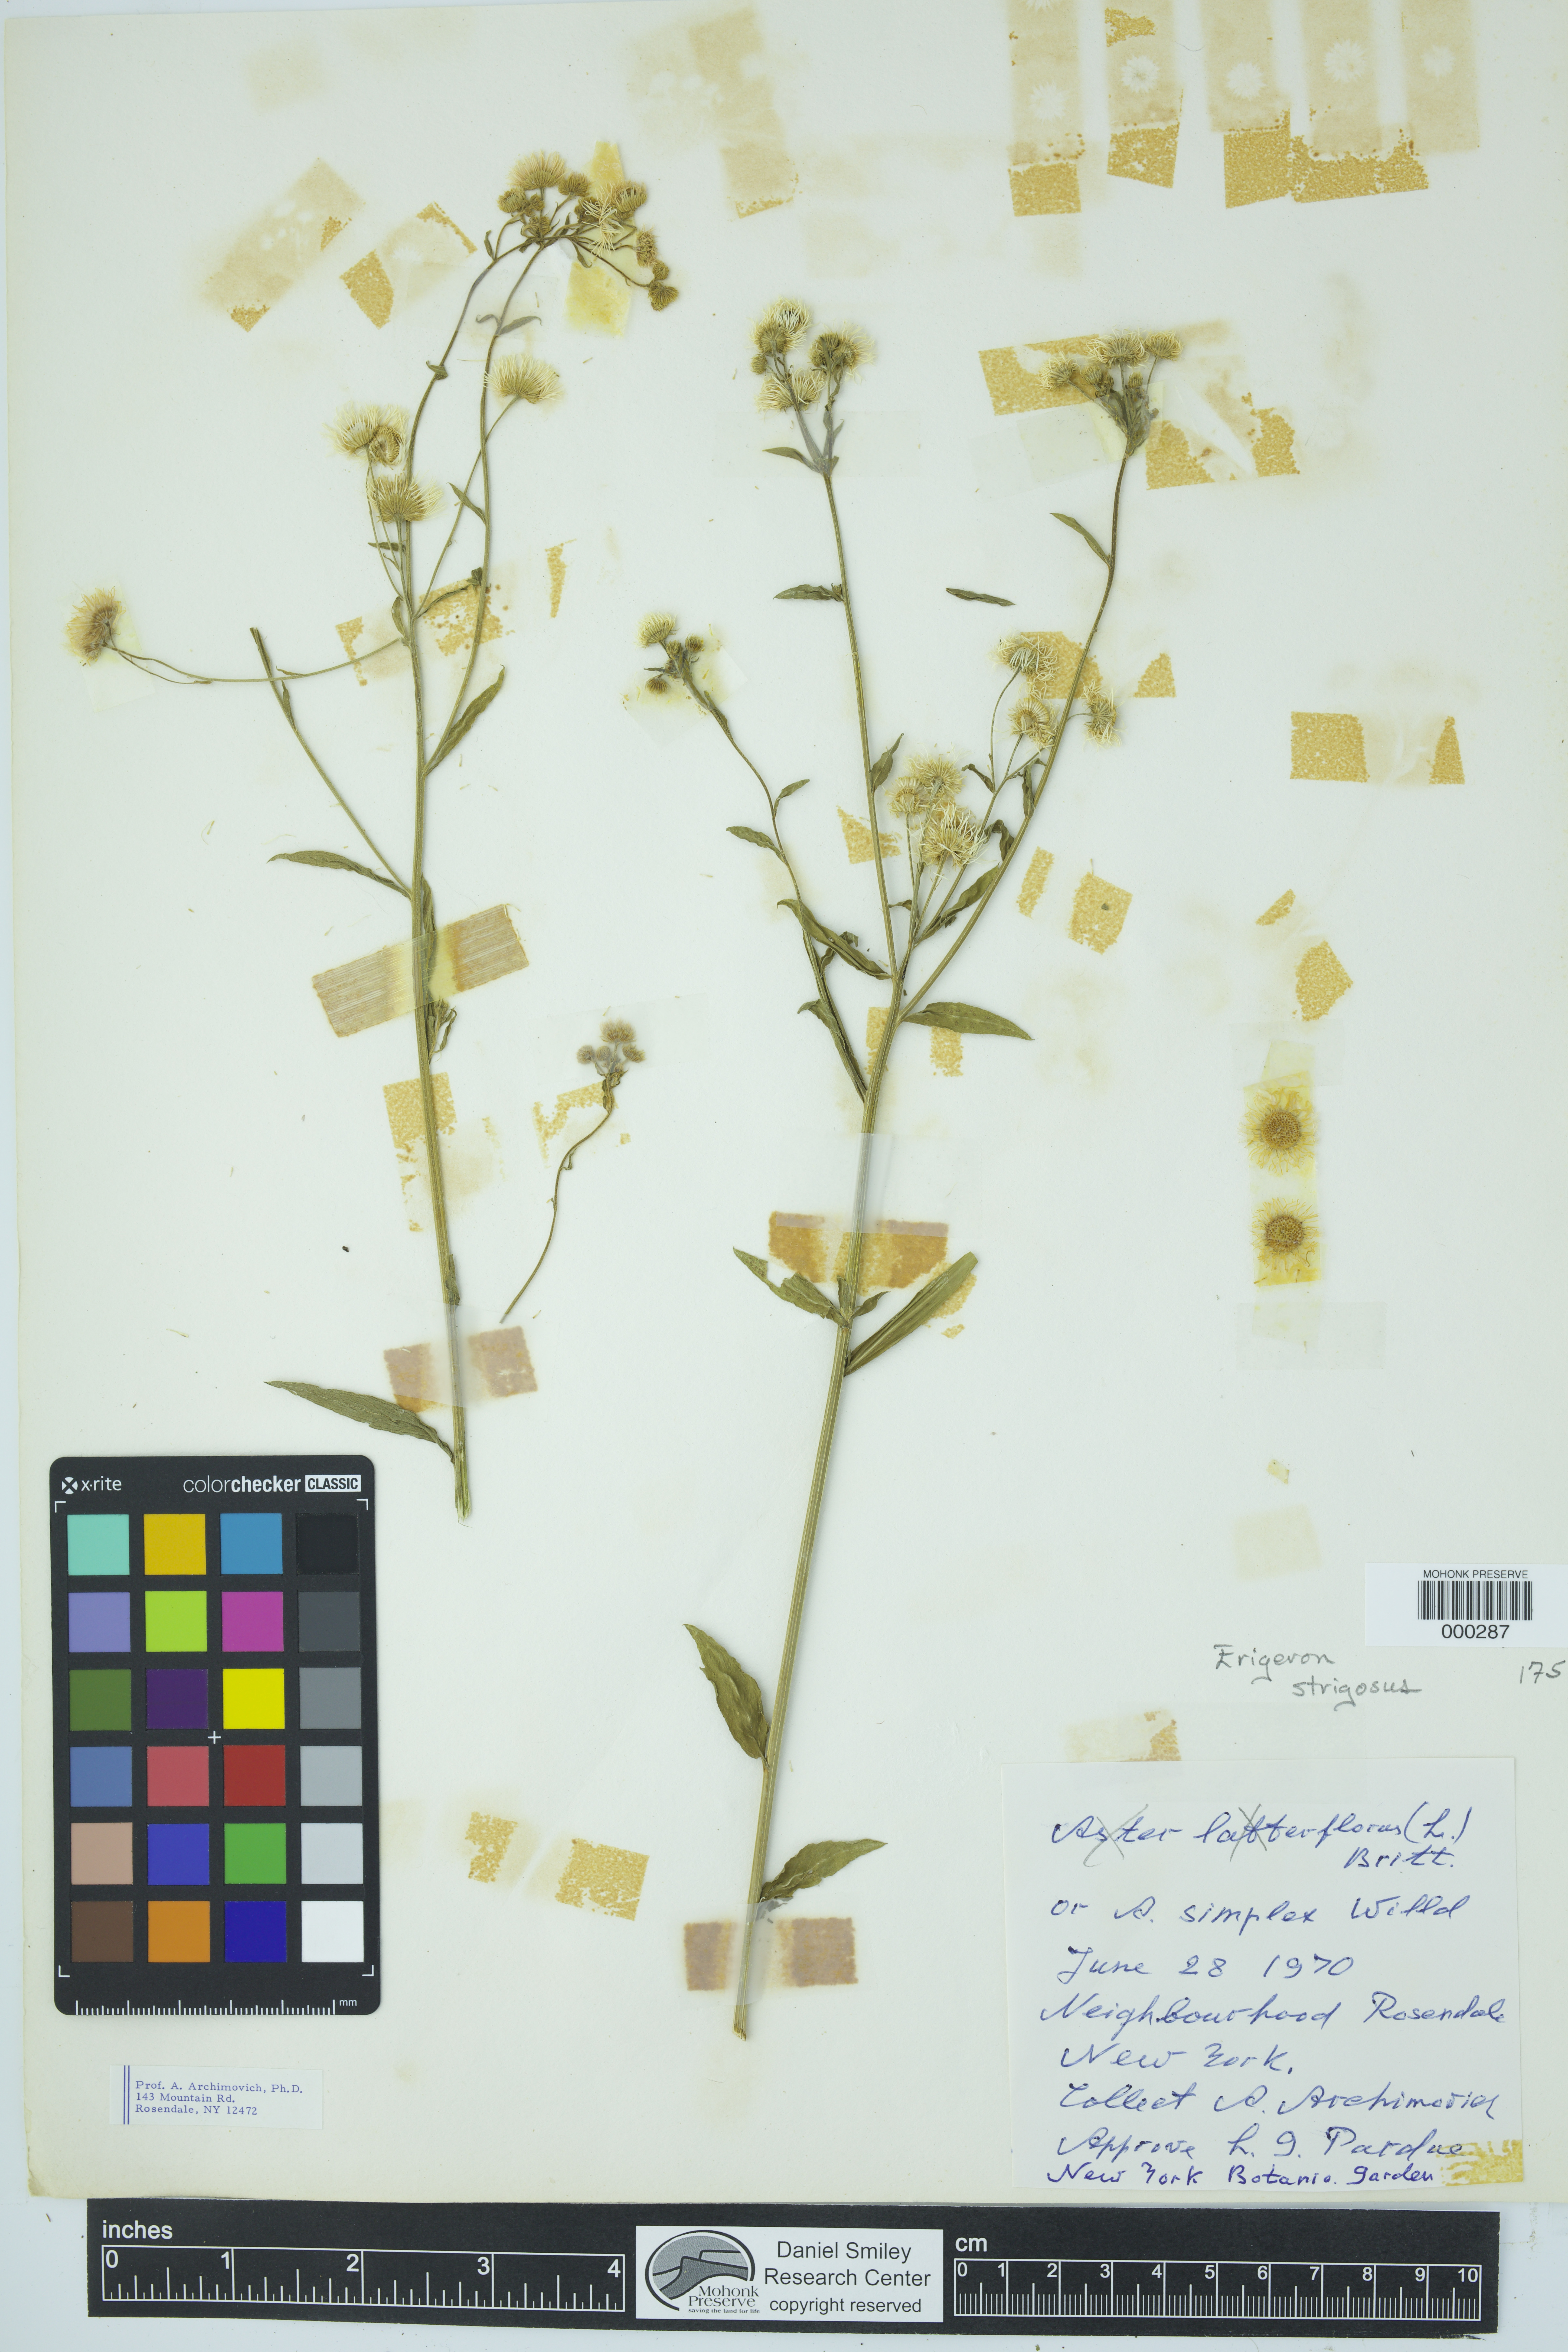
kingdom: Plantae
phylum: Tracheophyta
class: Magnoliopsida
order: Asterales
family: Asteraceae
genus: Erigeron
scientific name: Erigeron strigosus
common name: Common eastern fleabane
